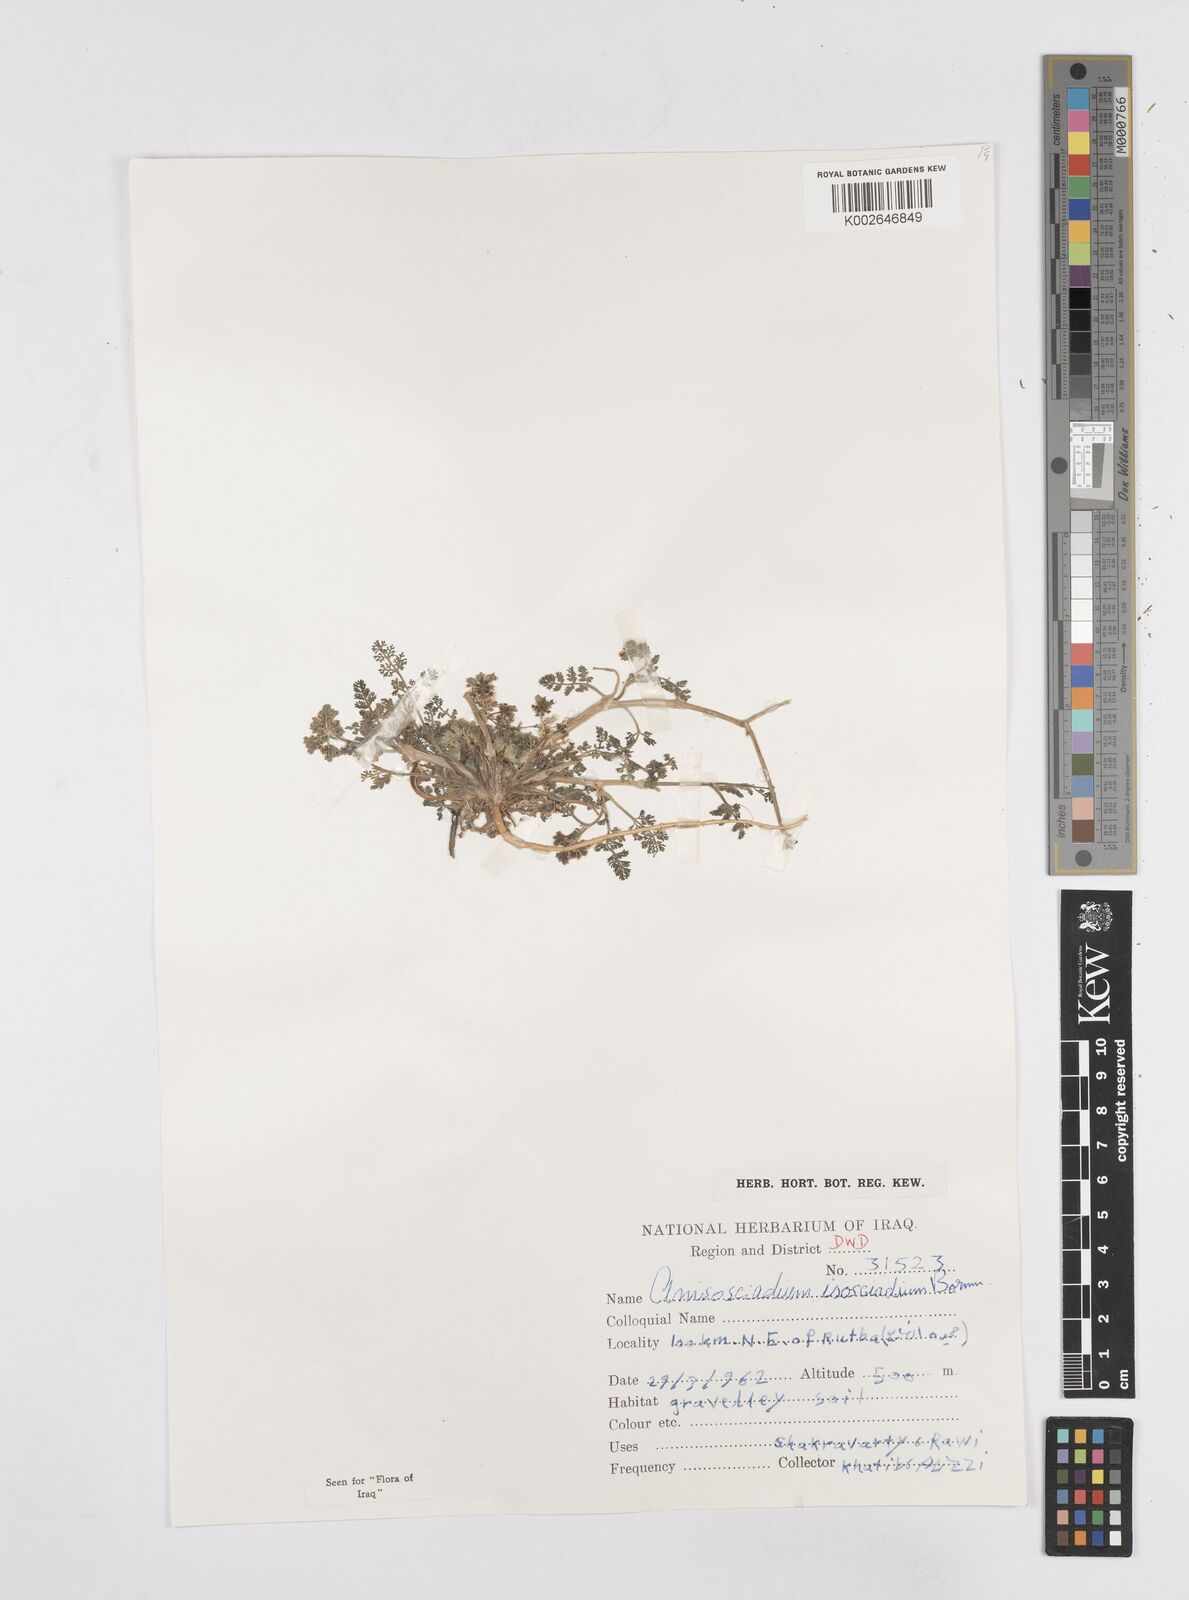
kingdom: Plantae
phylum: Tracheophyta
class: Magnoliopsida
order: Apiales
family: Apiaceae
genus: Anisosciadium
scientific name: Anisosciadium isosciadium
